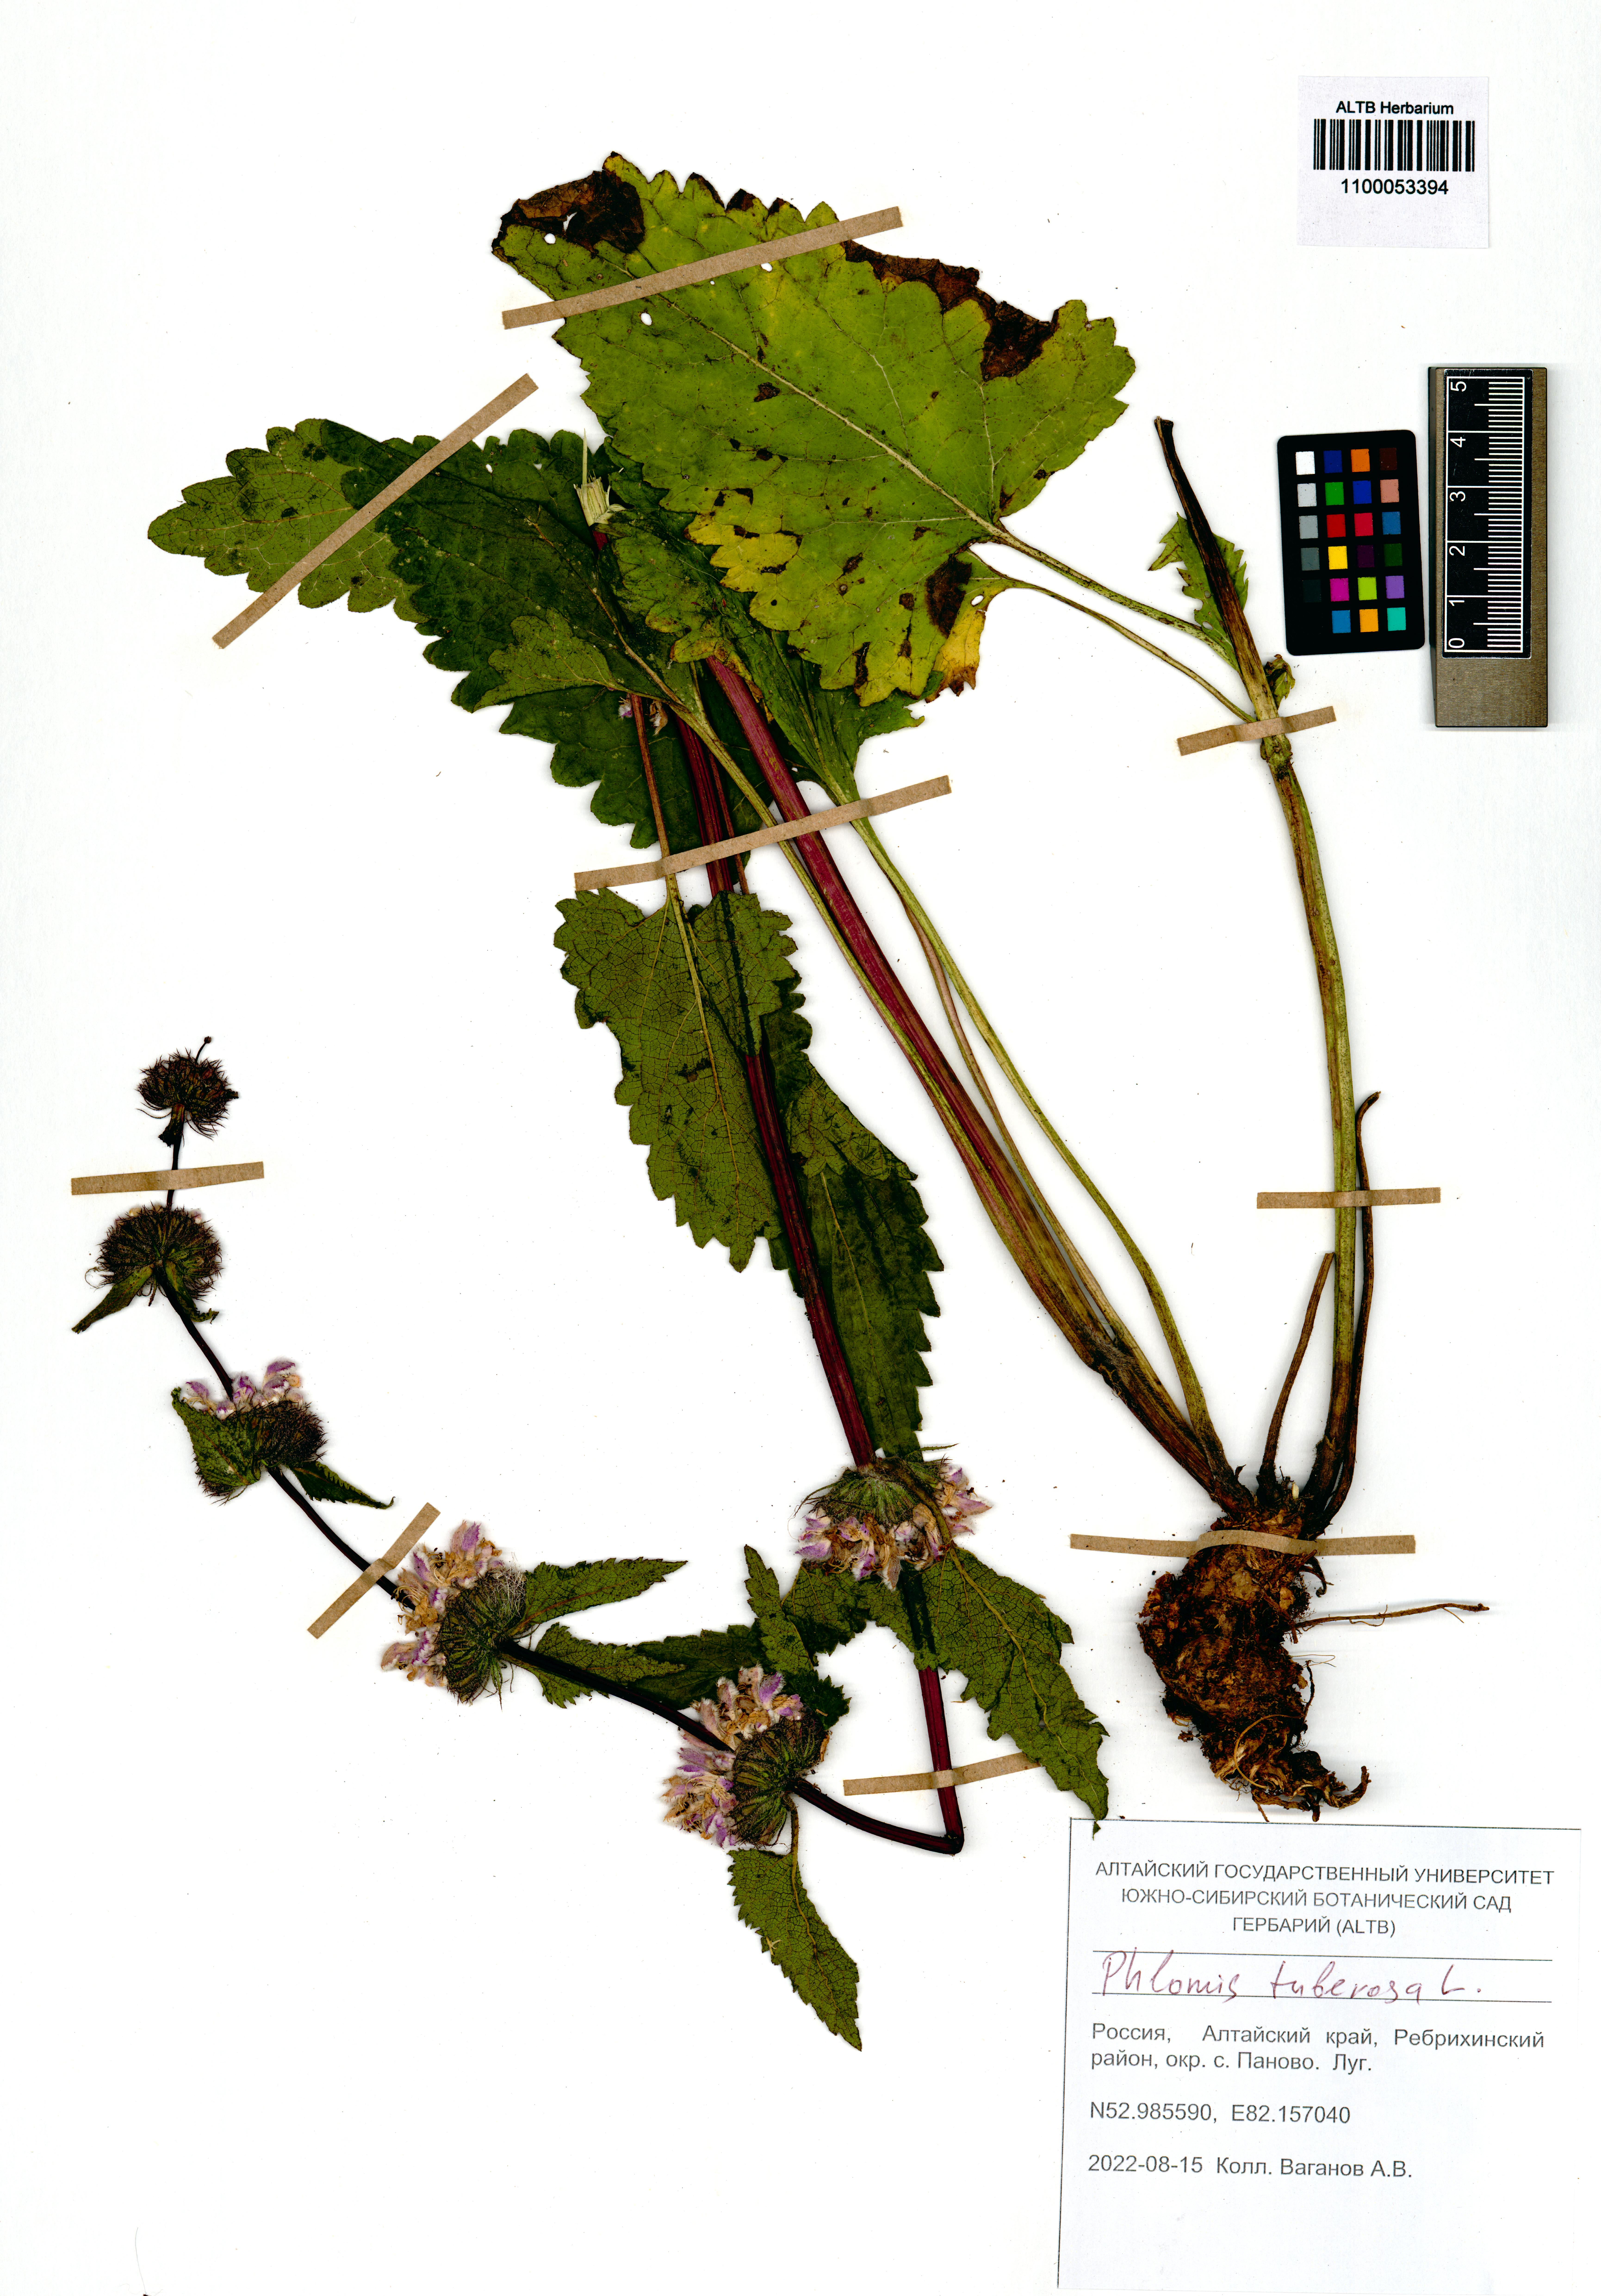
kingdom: Plantae
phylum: Tracheophyta
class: Magnoliopsida
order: Lamiales
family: Lamiaceae
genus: Phlomoides
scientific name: Phlomoides tuberosa
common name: Tuberous jerusalem sage
